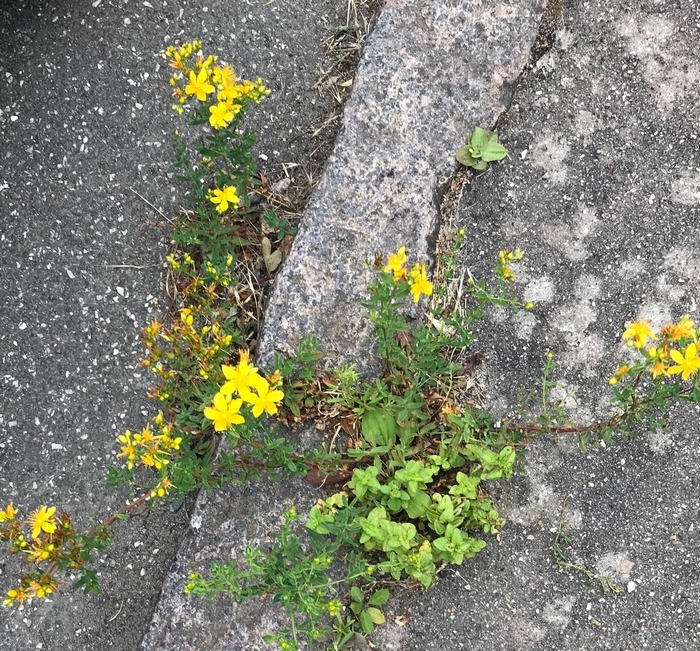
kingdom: Plantae
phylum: Tracheophyta
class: Magnoliopsida
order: Malpighiales
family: Hypericaceae
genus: Hypericum
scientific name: Hypericum
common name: Perikonslægten
